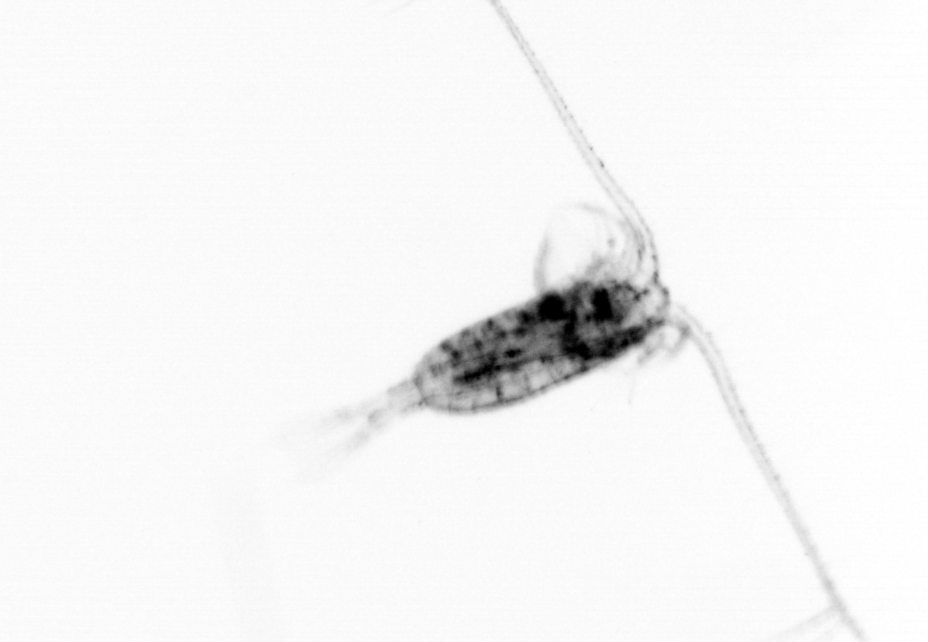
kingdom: Animalia
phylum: Arthropoda
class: Copepoda
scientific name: Copepoda
